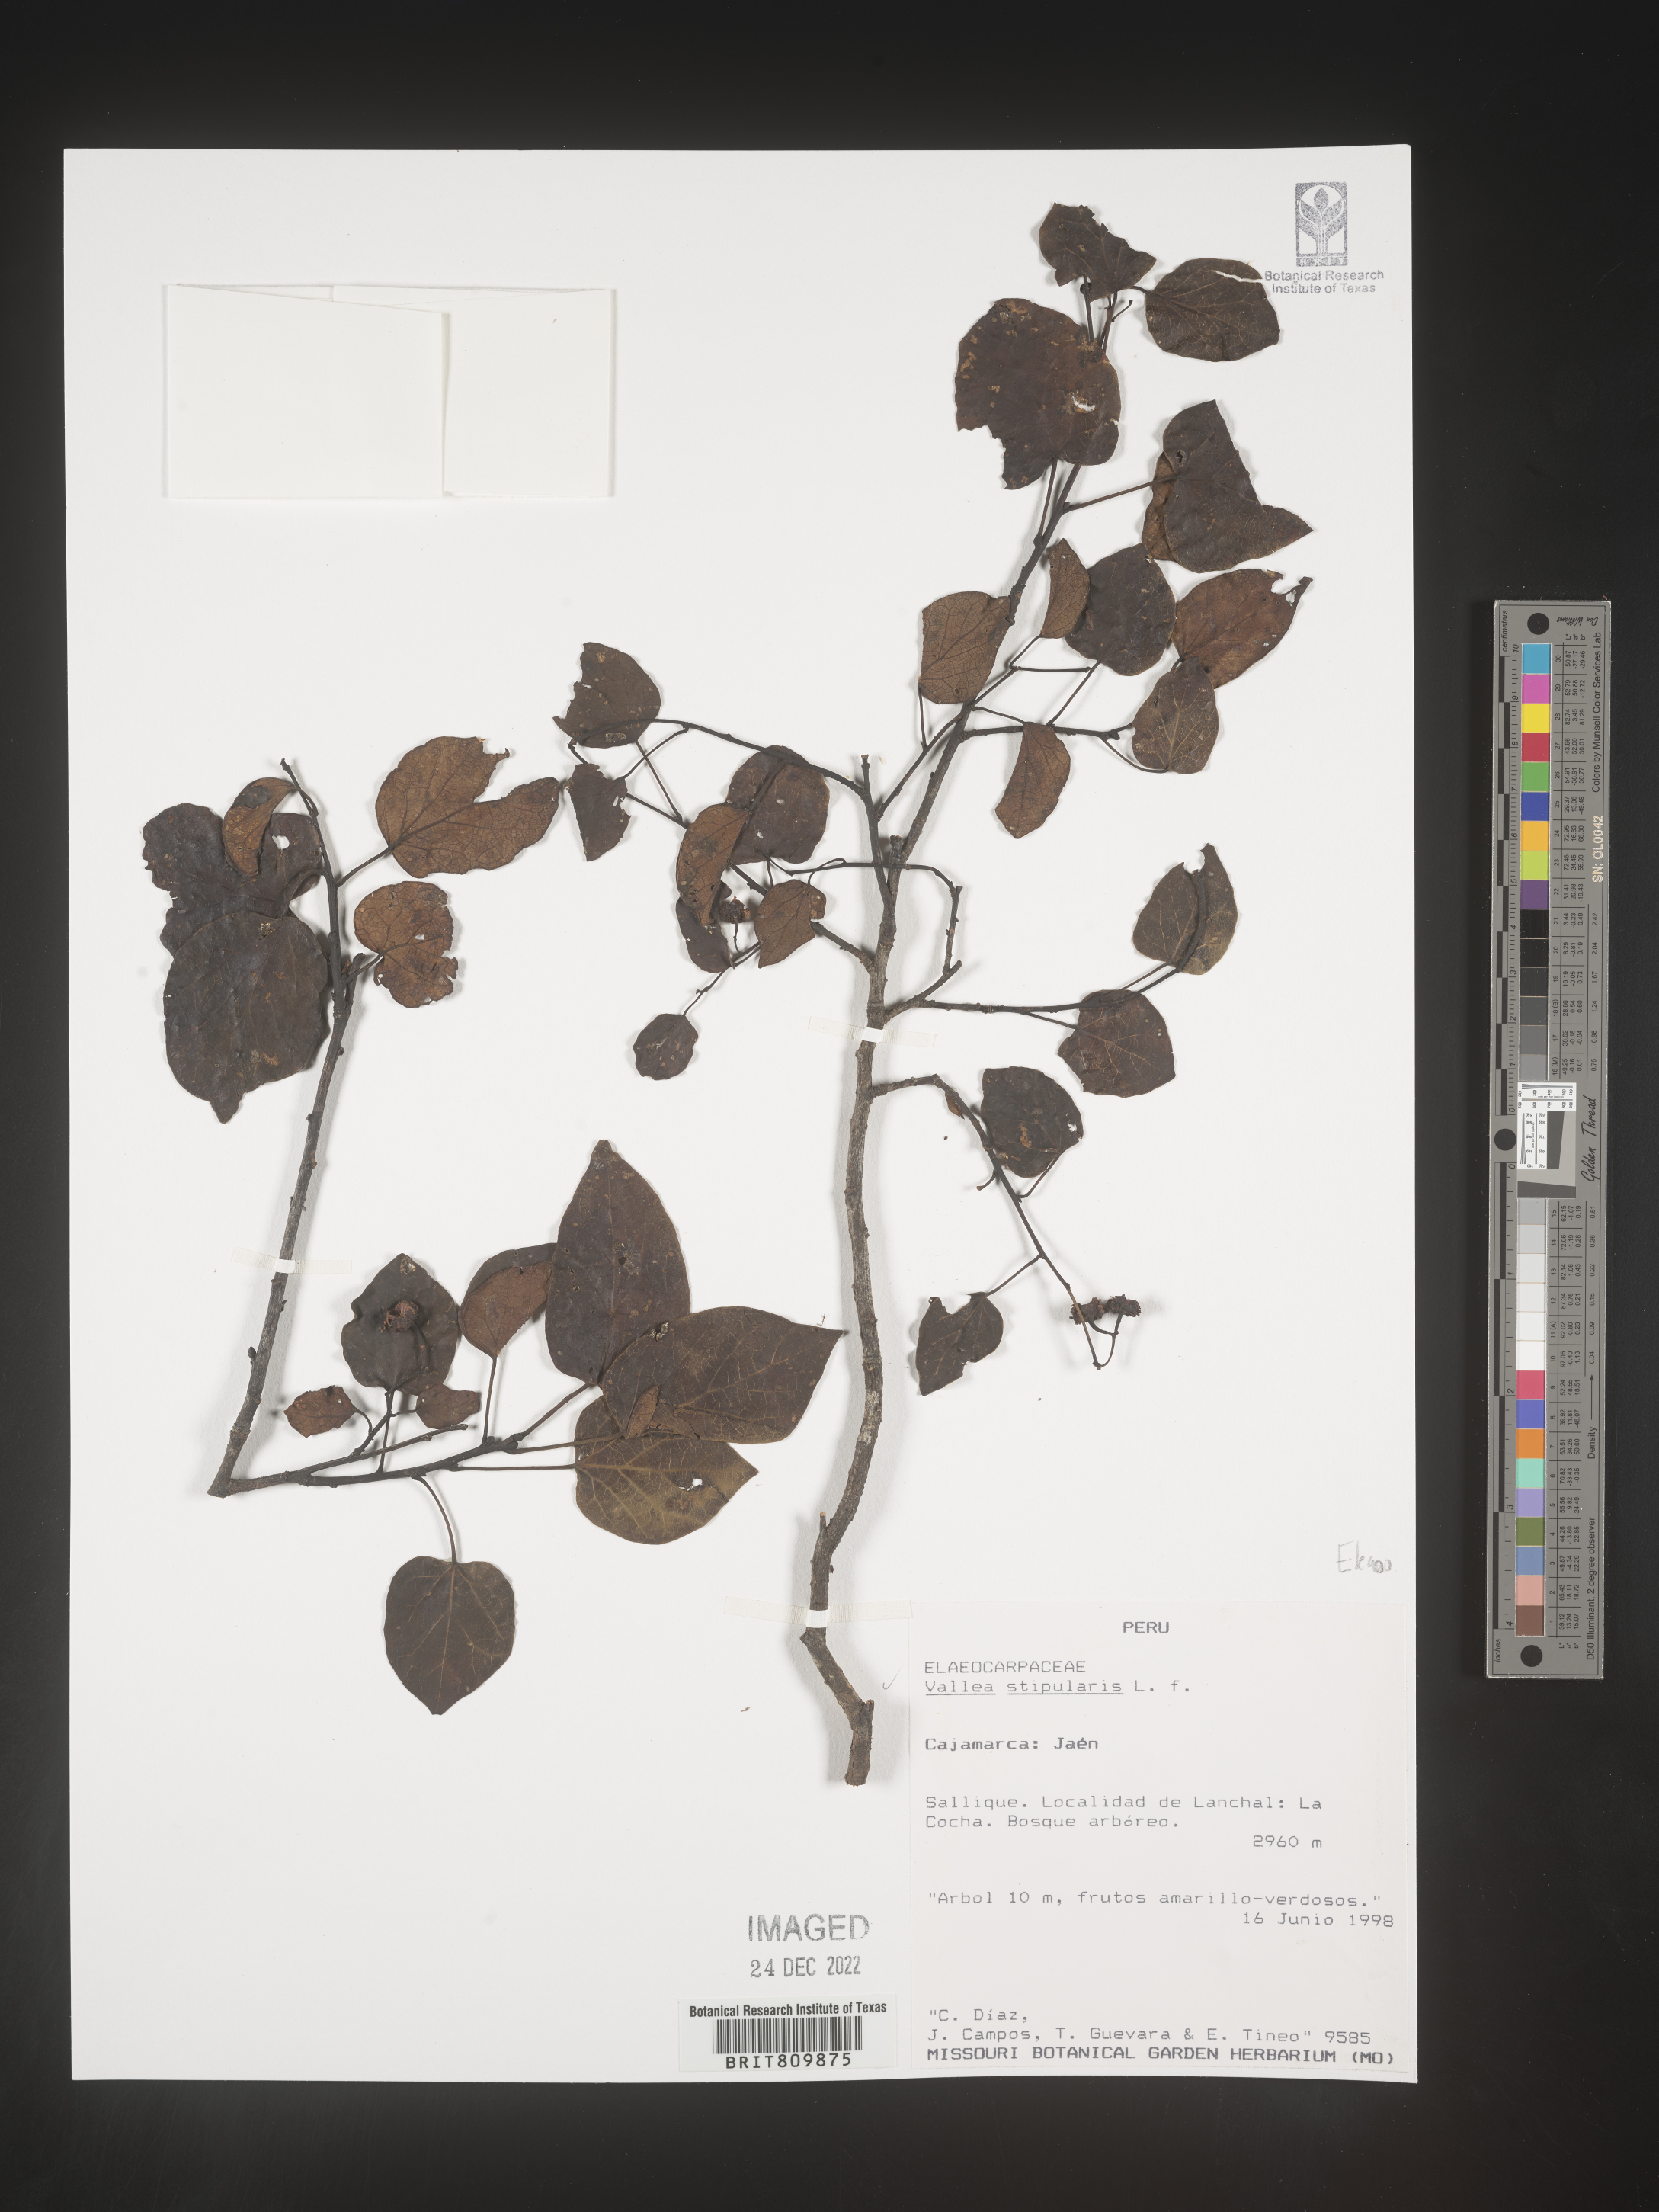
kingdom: Plantae
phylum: Tracheophyta
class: Magnoliopsida
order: Oxalidales
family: Elaeocarpaceae
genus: Vallea
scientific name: Vallea
